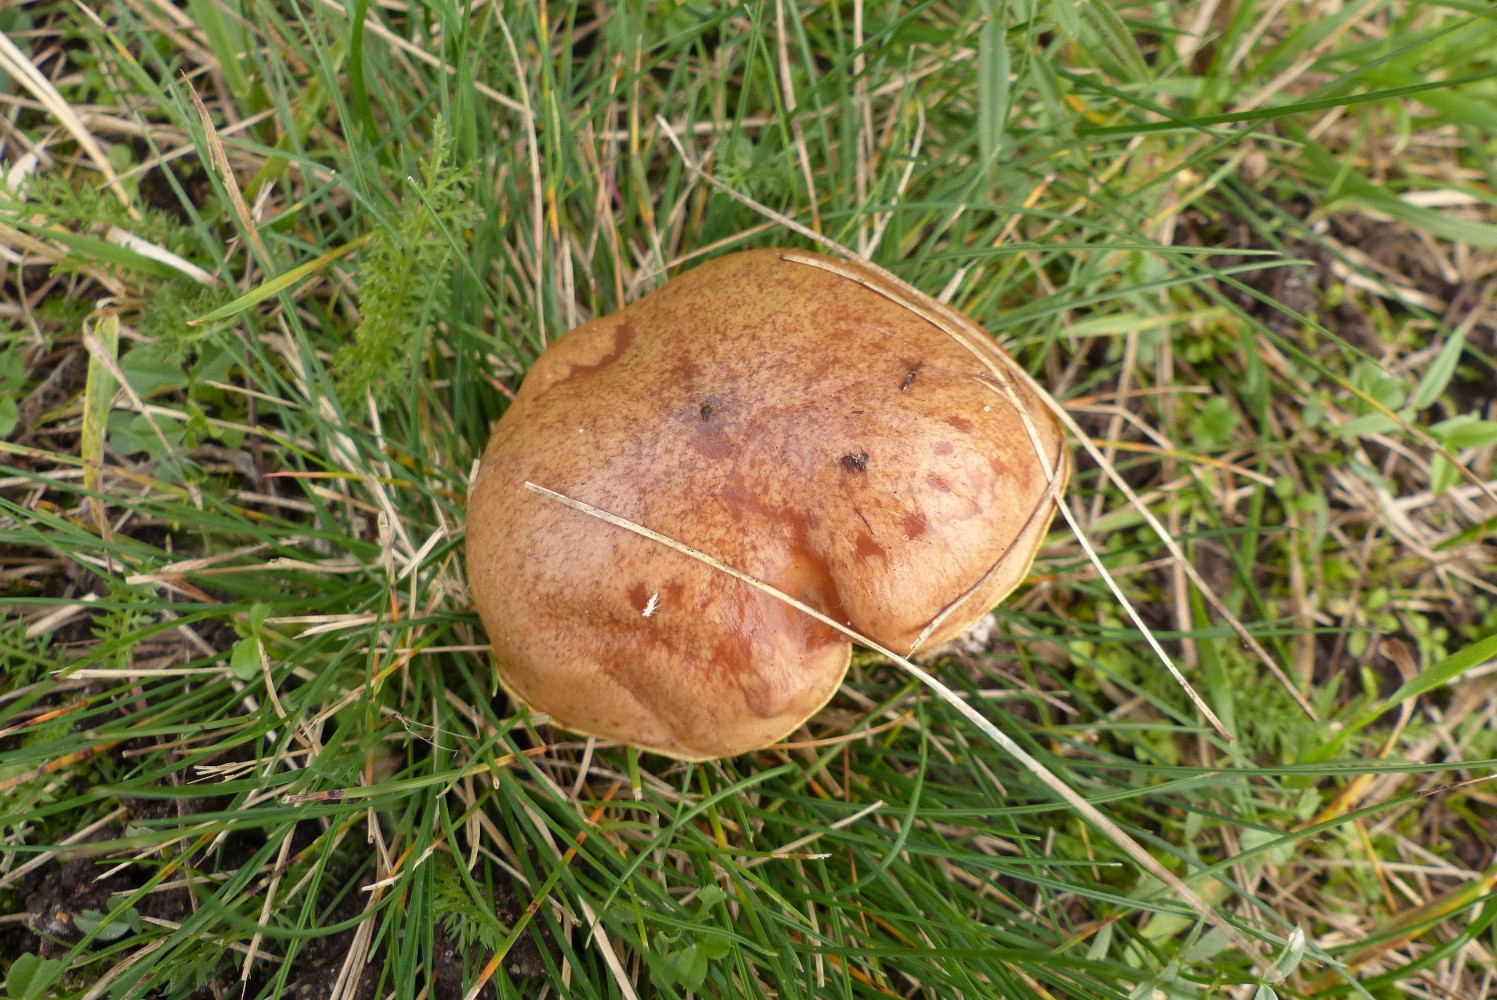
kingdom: Fungi
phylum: Basidiomycota
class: Agaricomycetes
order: Boletales
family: Suillaceae
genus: Suillus
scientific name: Suillus granulatus
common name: kornet slimrørhat
